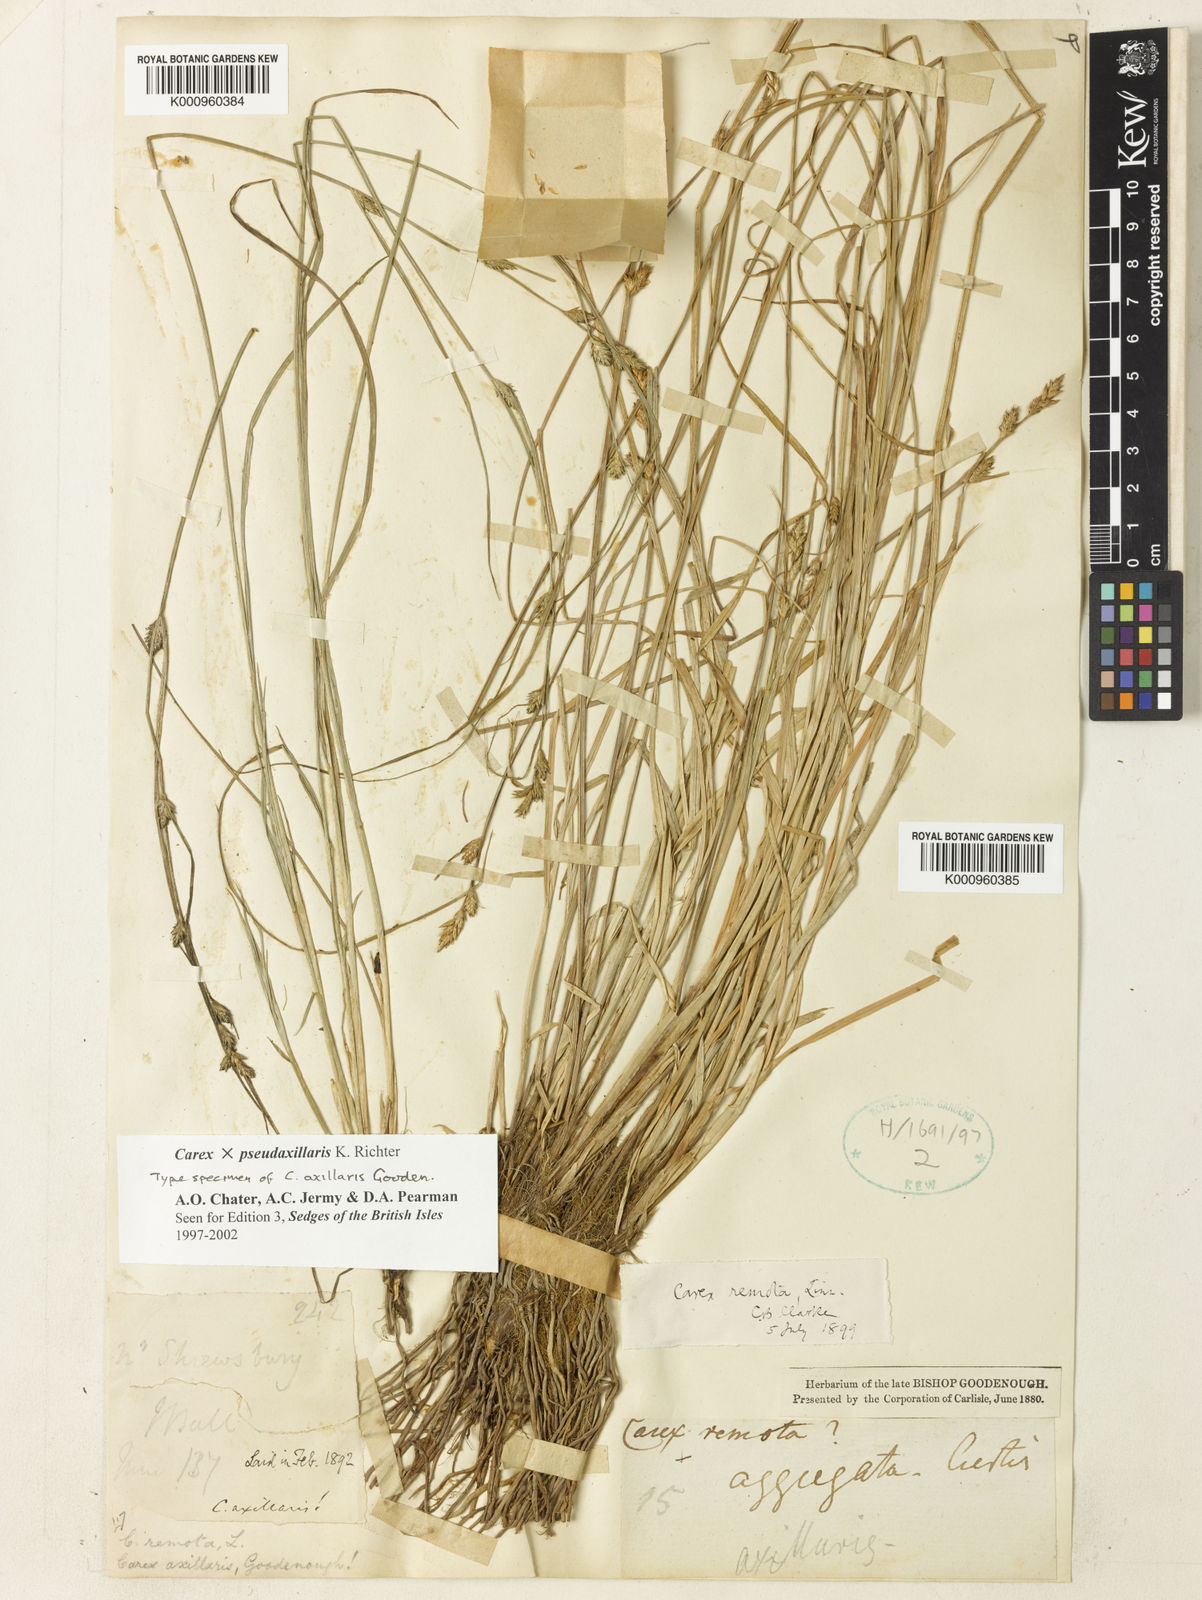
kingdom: Plantae
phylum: Tracheophyta
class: Liliopsida
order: Poales
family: Cyperaceae
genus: Carex
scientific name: Carex pseudoaxillaris
